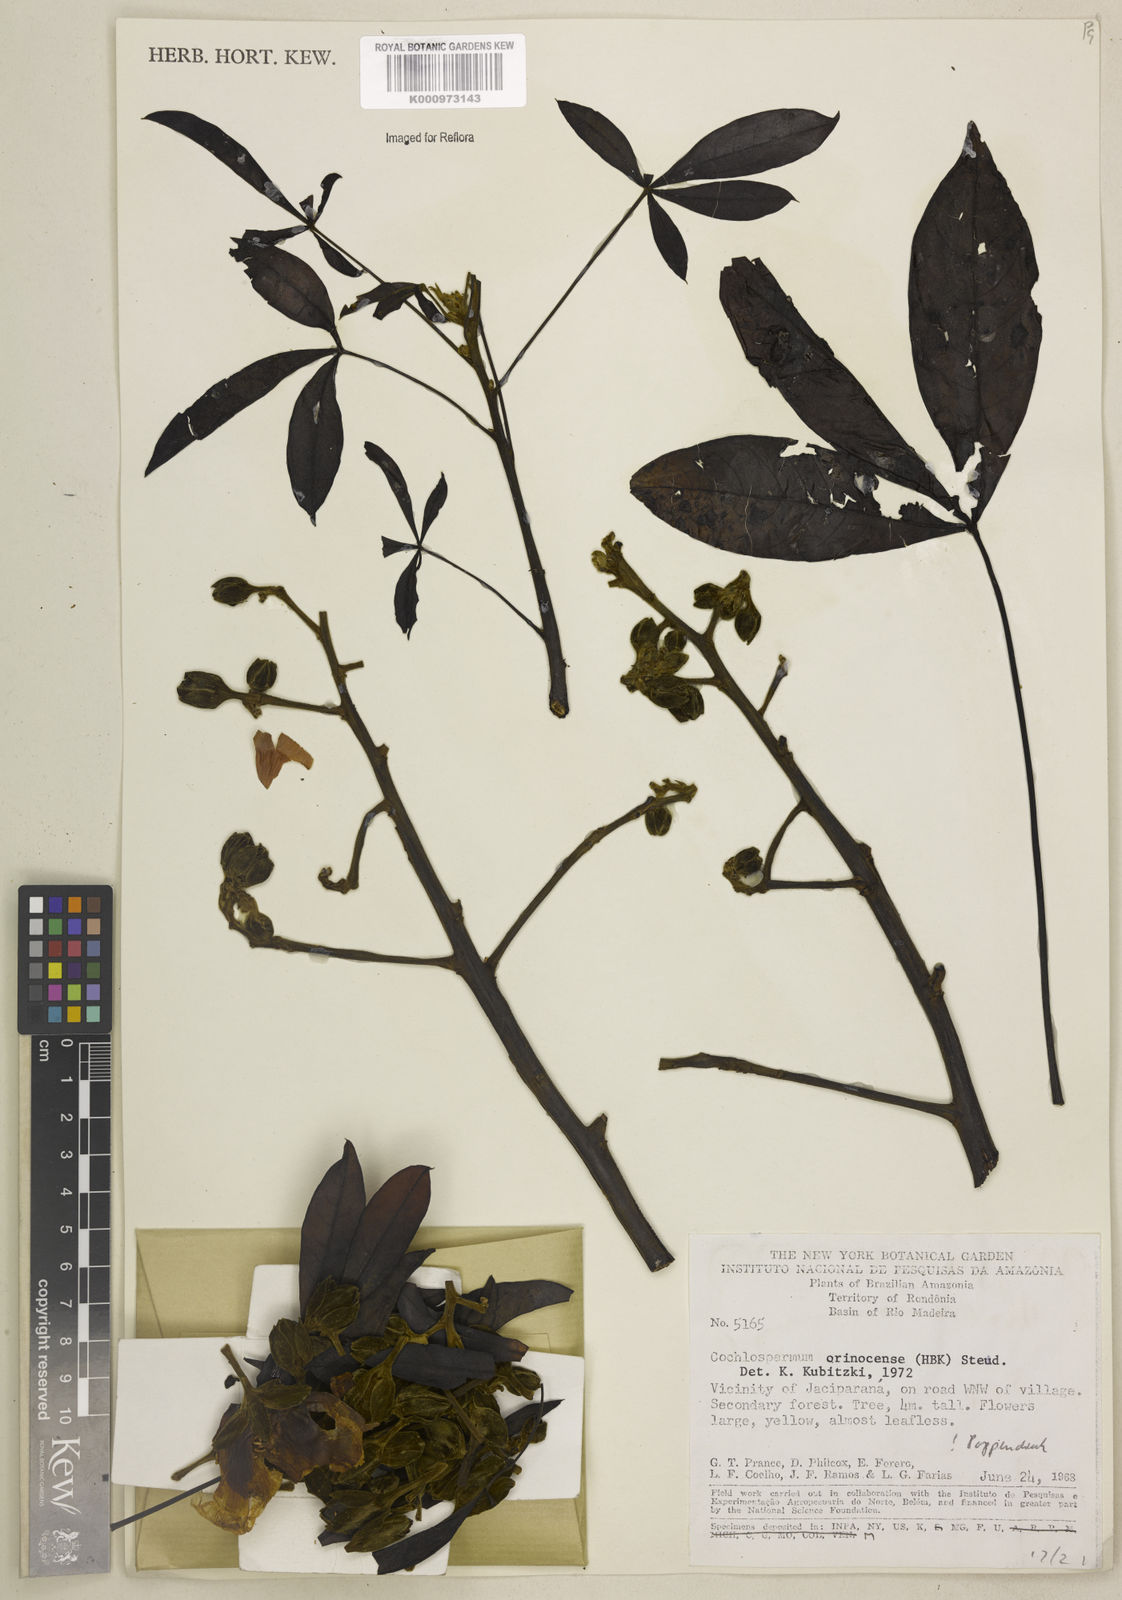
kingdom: Plantae
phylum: Tracheophyta
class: Magnoliopsida
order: Malvales
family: Cochlospermaceae
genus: Cochlospermum
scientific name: Cochlospermum orinocense
